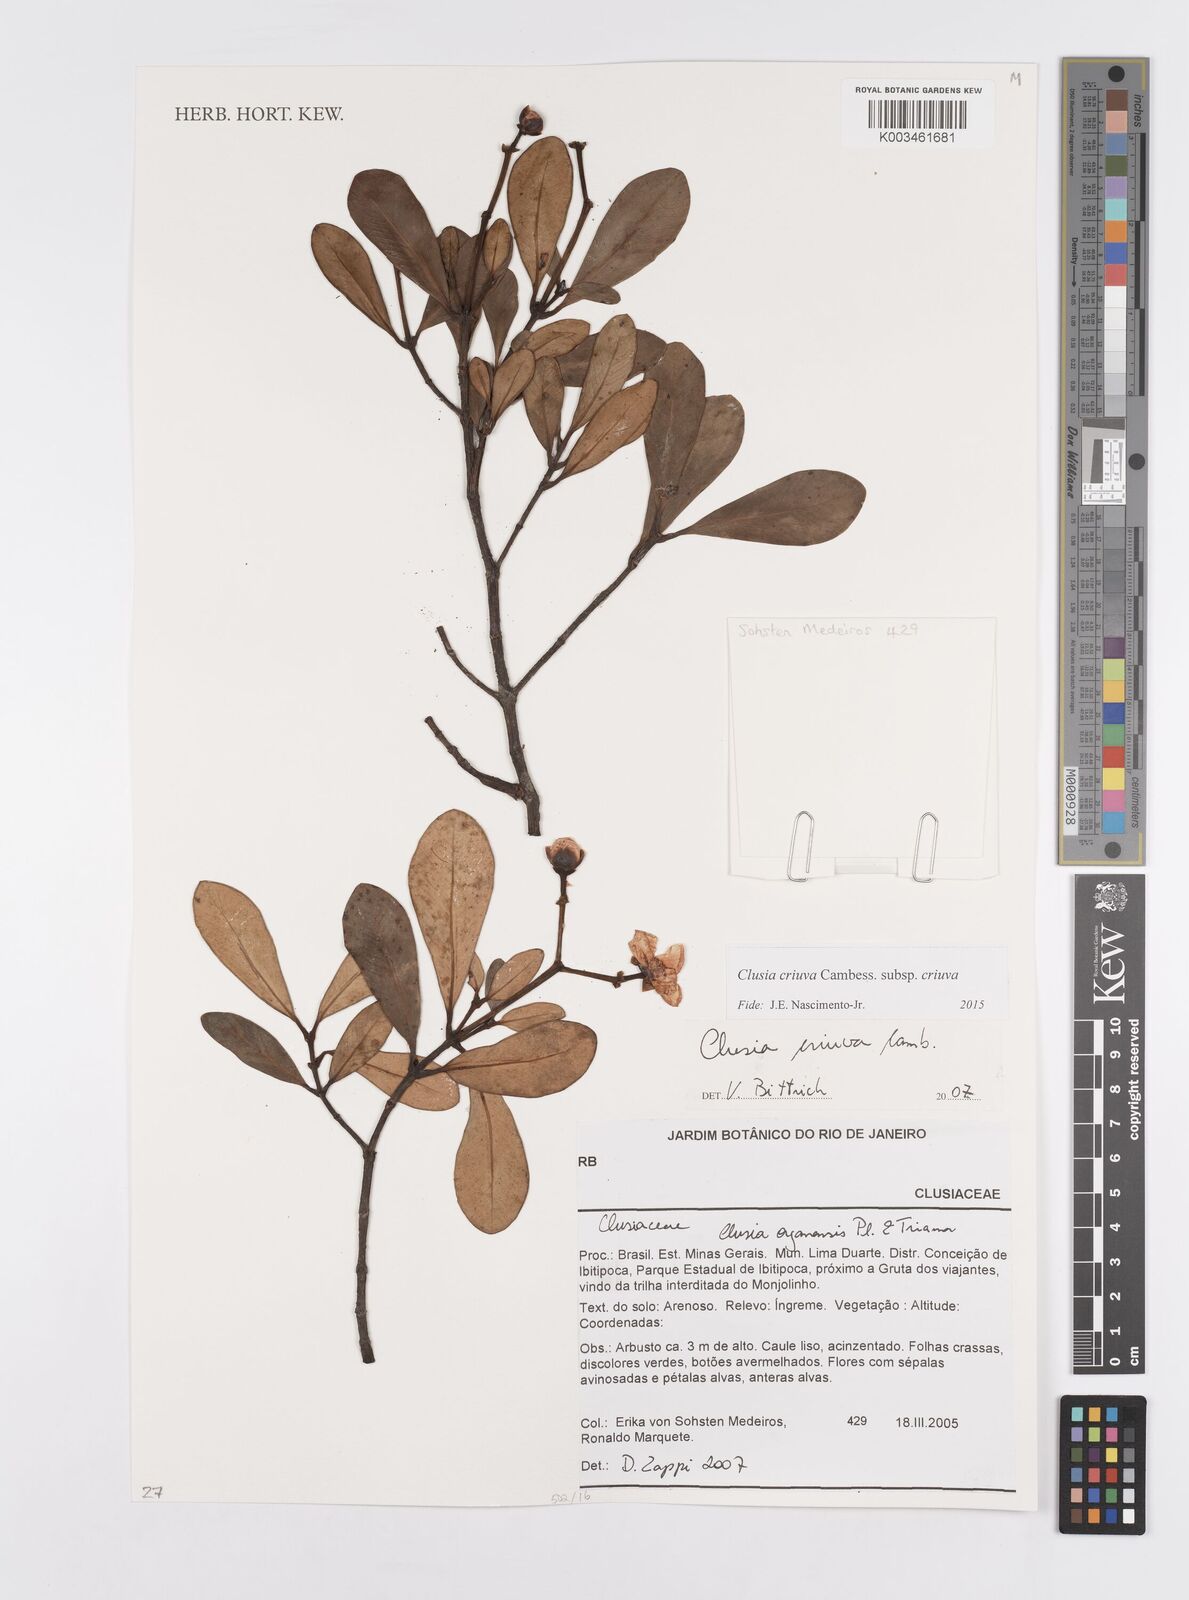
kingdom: Plantae
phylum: Tracheophyta
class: Magnoliopsida
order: Malpighiales
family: Clusiaceae
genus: Clusia
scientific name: Clusia criuva
